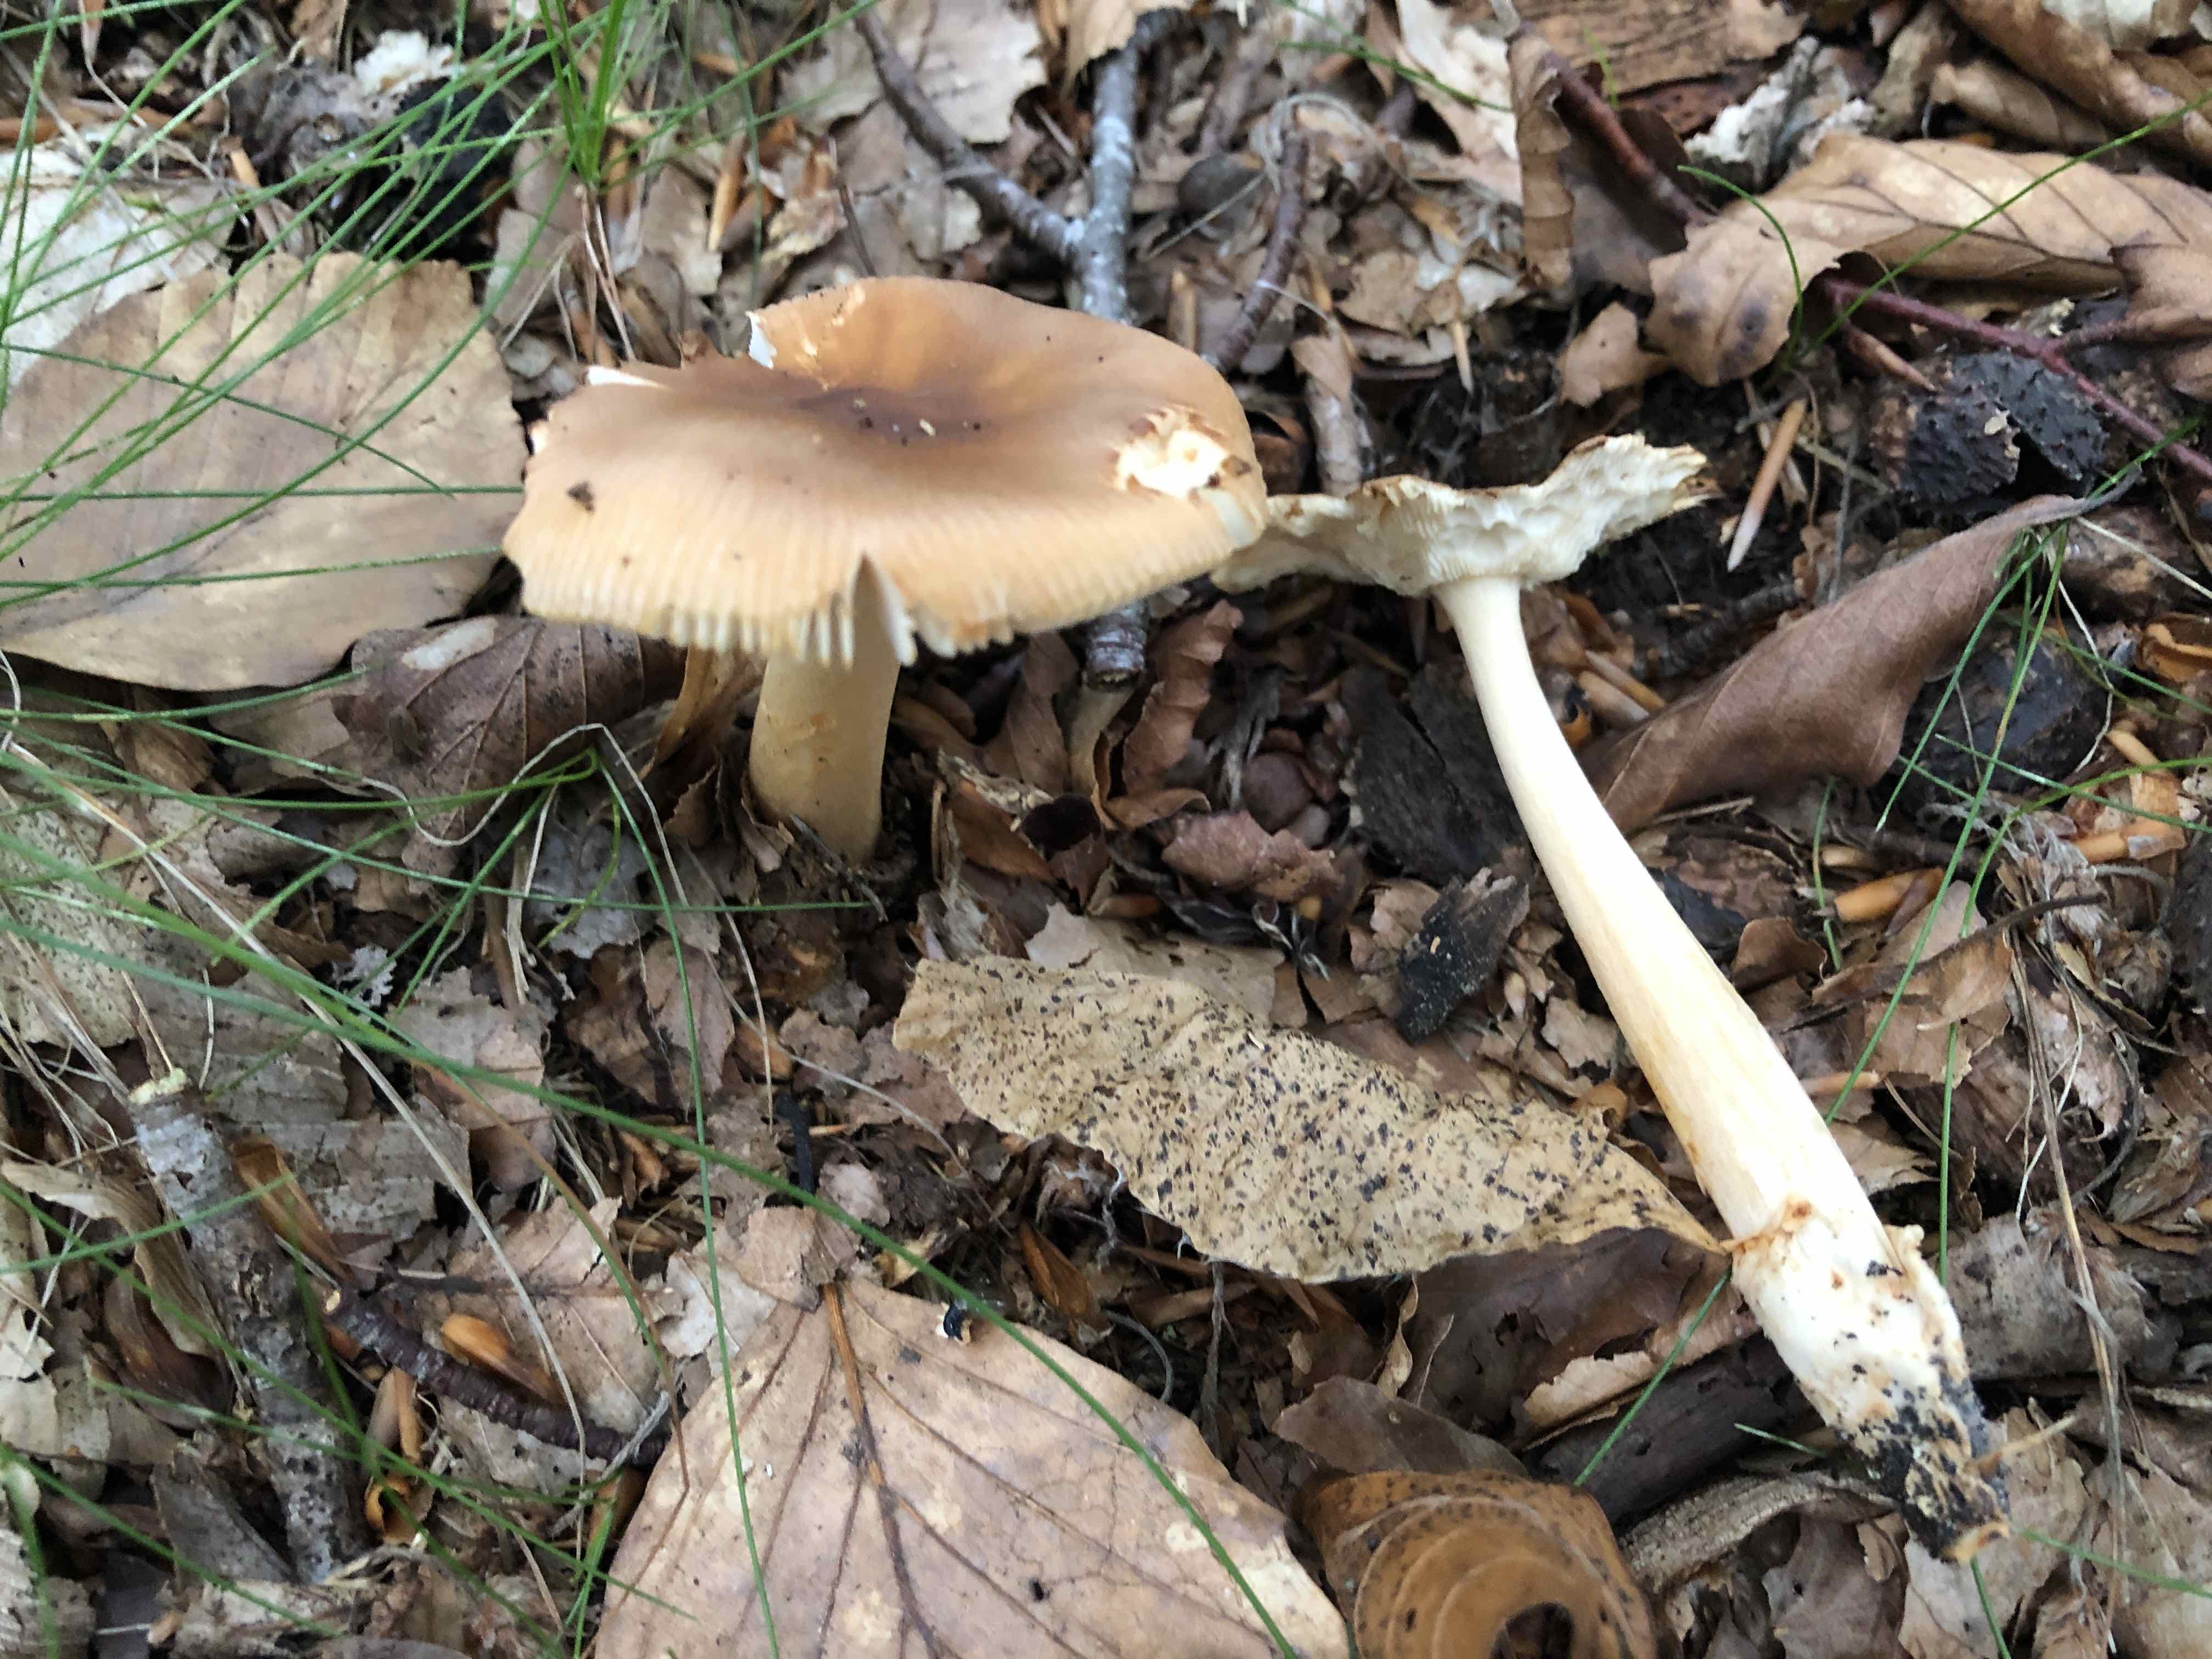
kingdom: Fungi
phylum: Basidiomycota
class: Agaricomycetes
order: Agaricales
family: Amanitaceae
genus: Amanita
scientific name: Amanita fulva
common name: brun kam-fluesvamp
